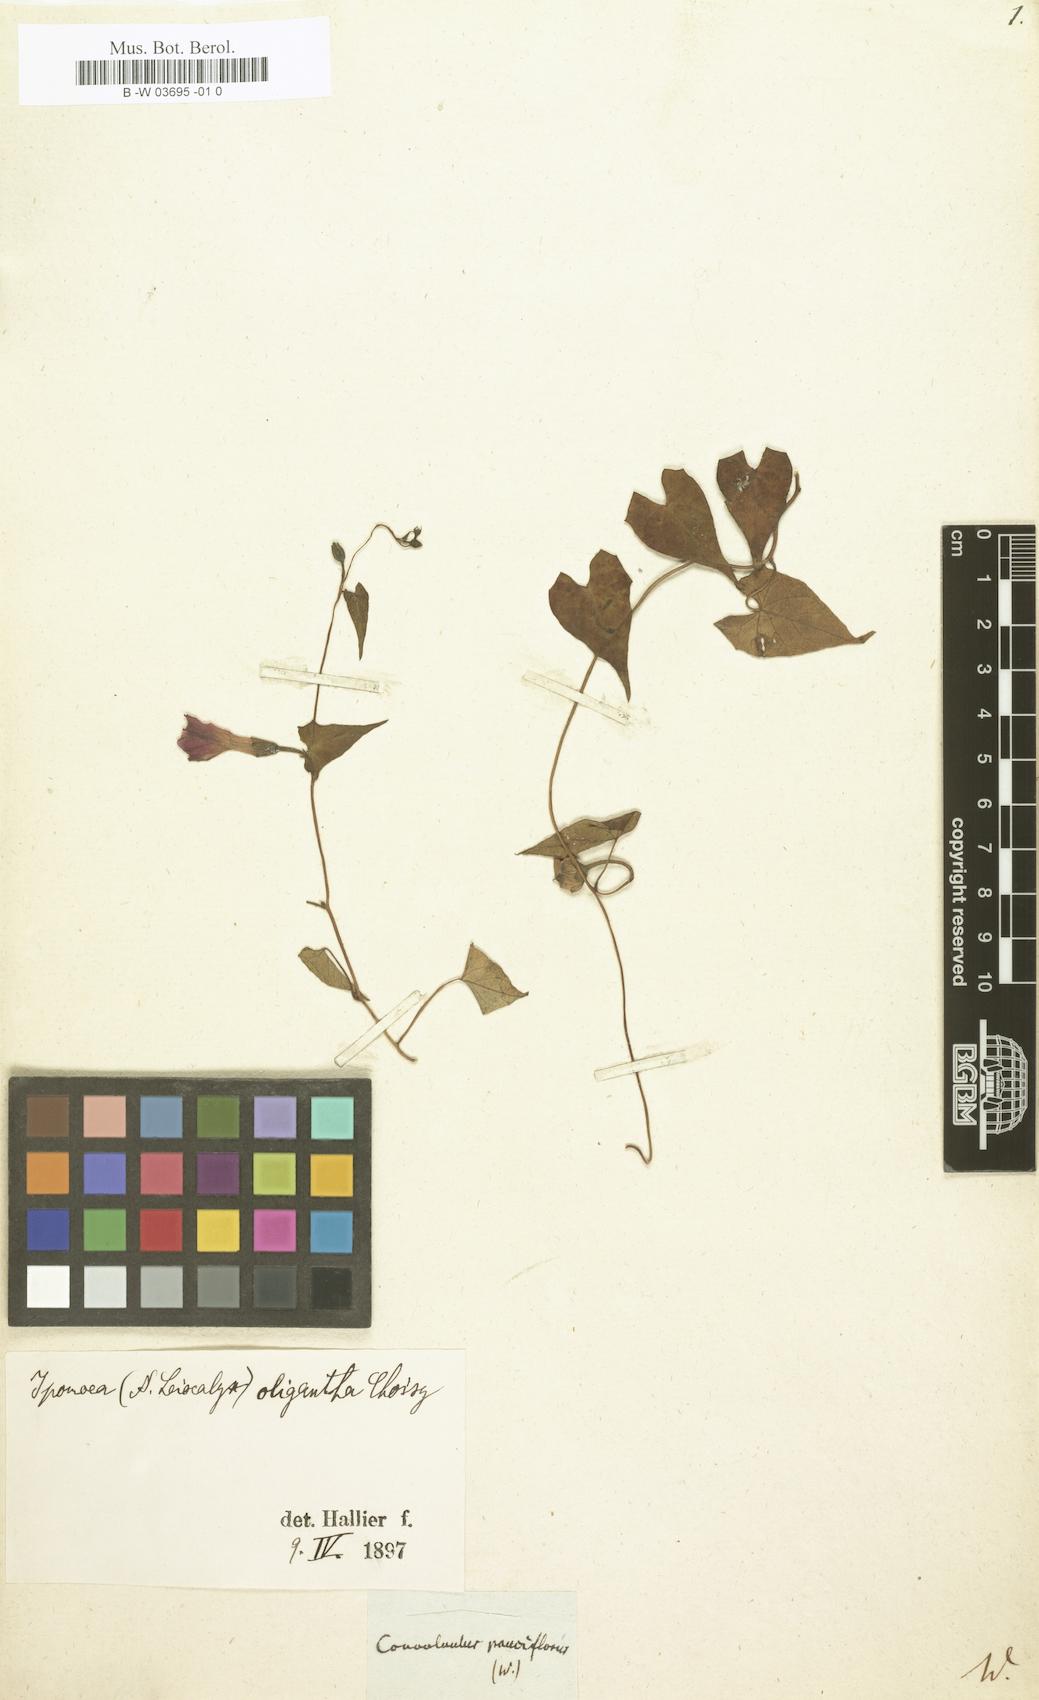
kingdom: Plantae
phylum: Tracheophyta
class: Magnoliopsida
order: Solanales
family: Convolvulaceae
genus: Ipomoea
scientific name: Ipomoea dumetorum
